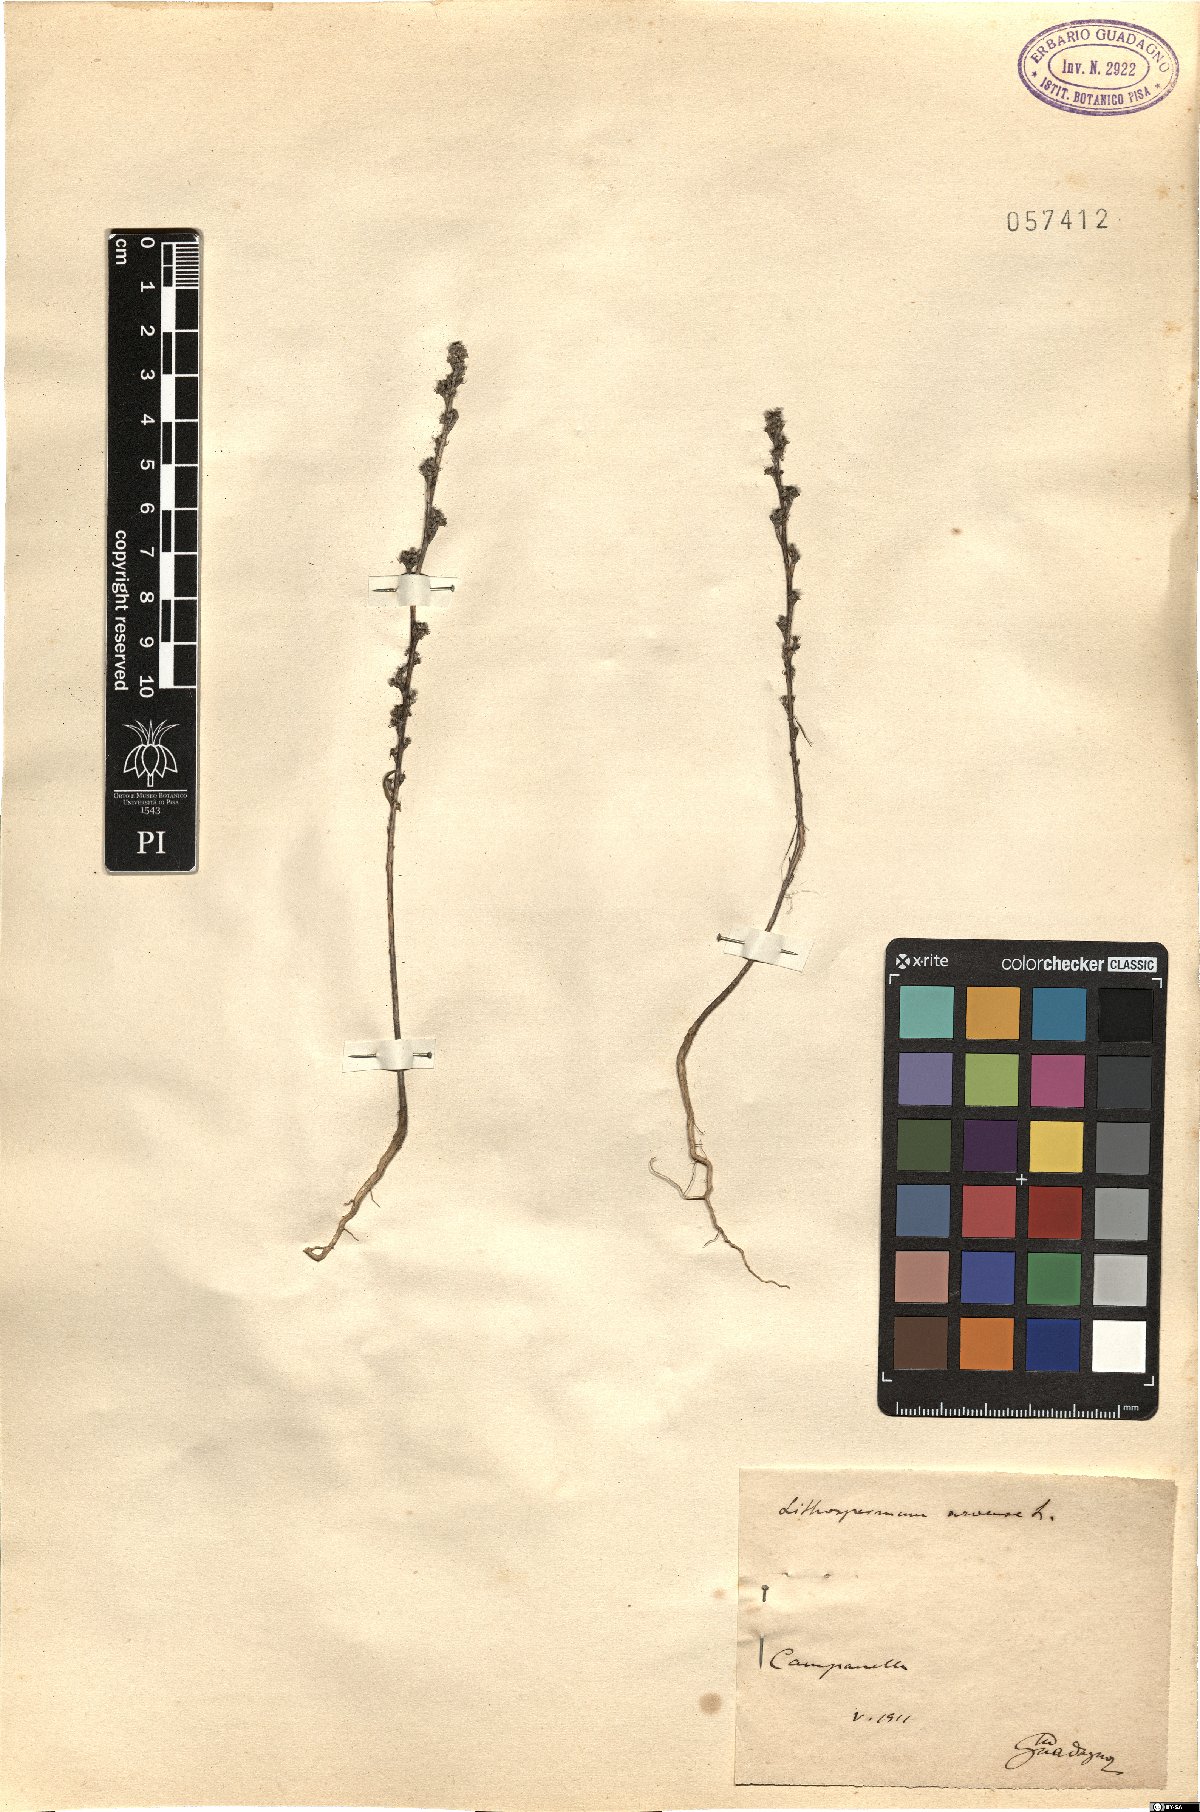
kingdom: Plantae
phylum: Tracheophyta
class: Magnoliopsida
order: Boraginales
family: Boraginaceae
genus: Buglossoides
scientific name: Buglossoides arvensis
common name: Corn gromwell
